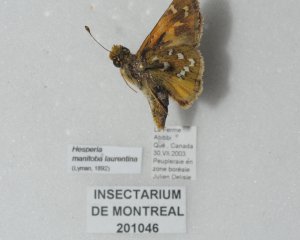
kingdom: Animalia
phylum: Arthropoda
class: Insecta
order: Lepidoptera
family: Hesperiidae
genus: Hesperia
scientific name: Hesperia comma
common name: Common Branded Skipper
